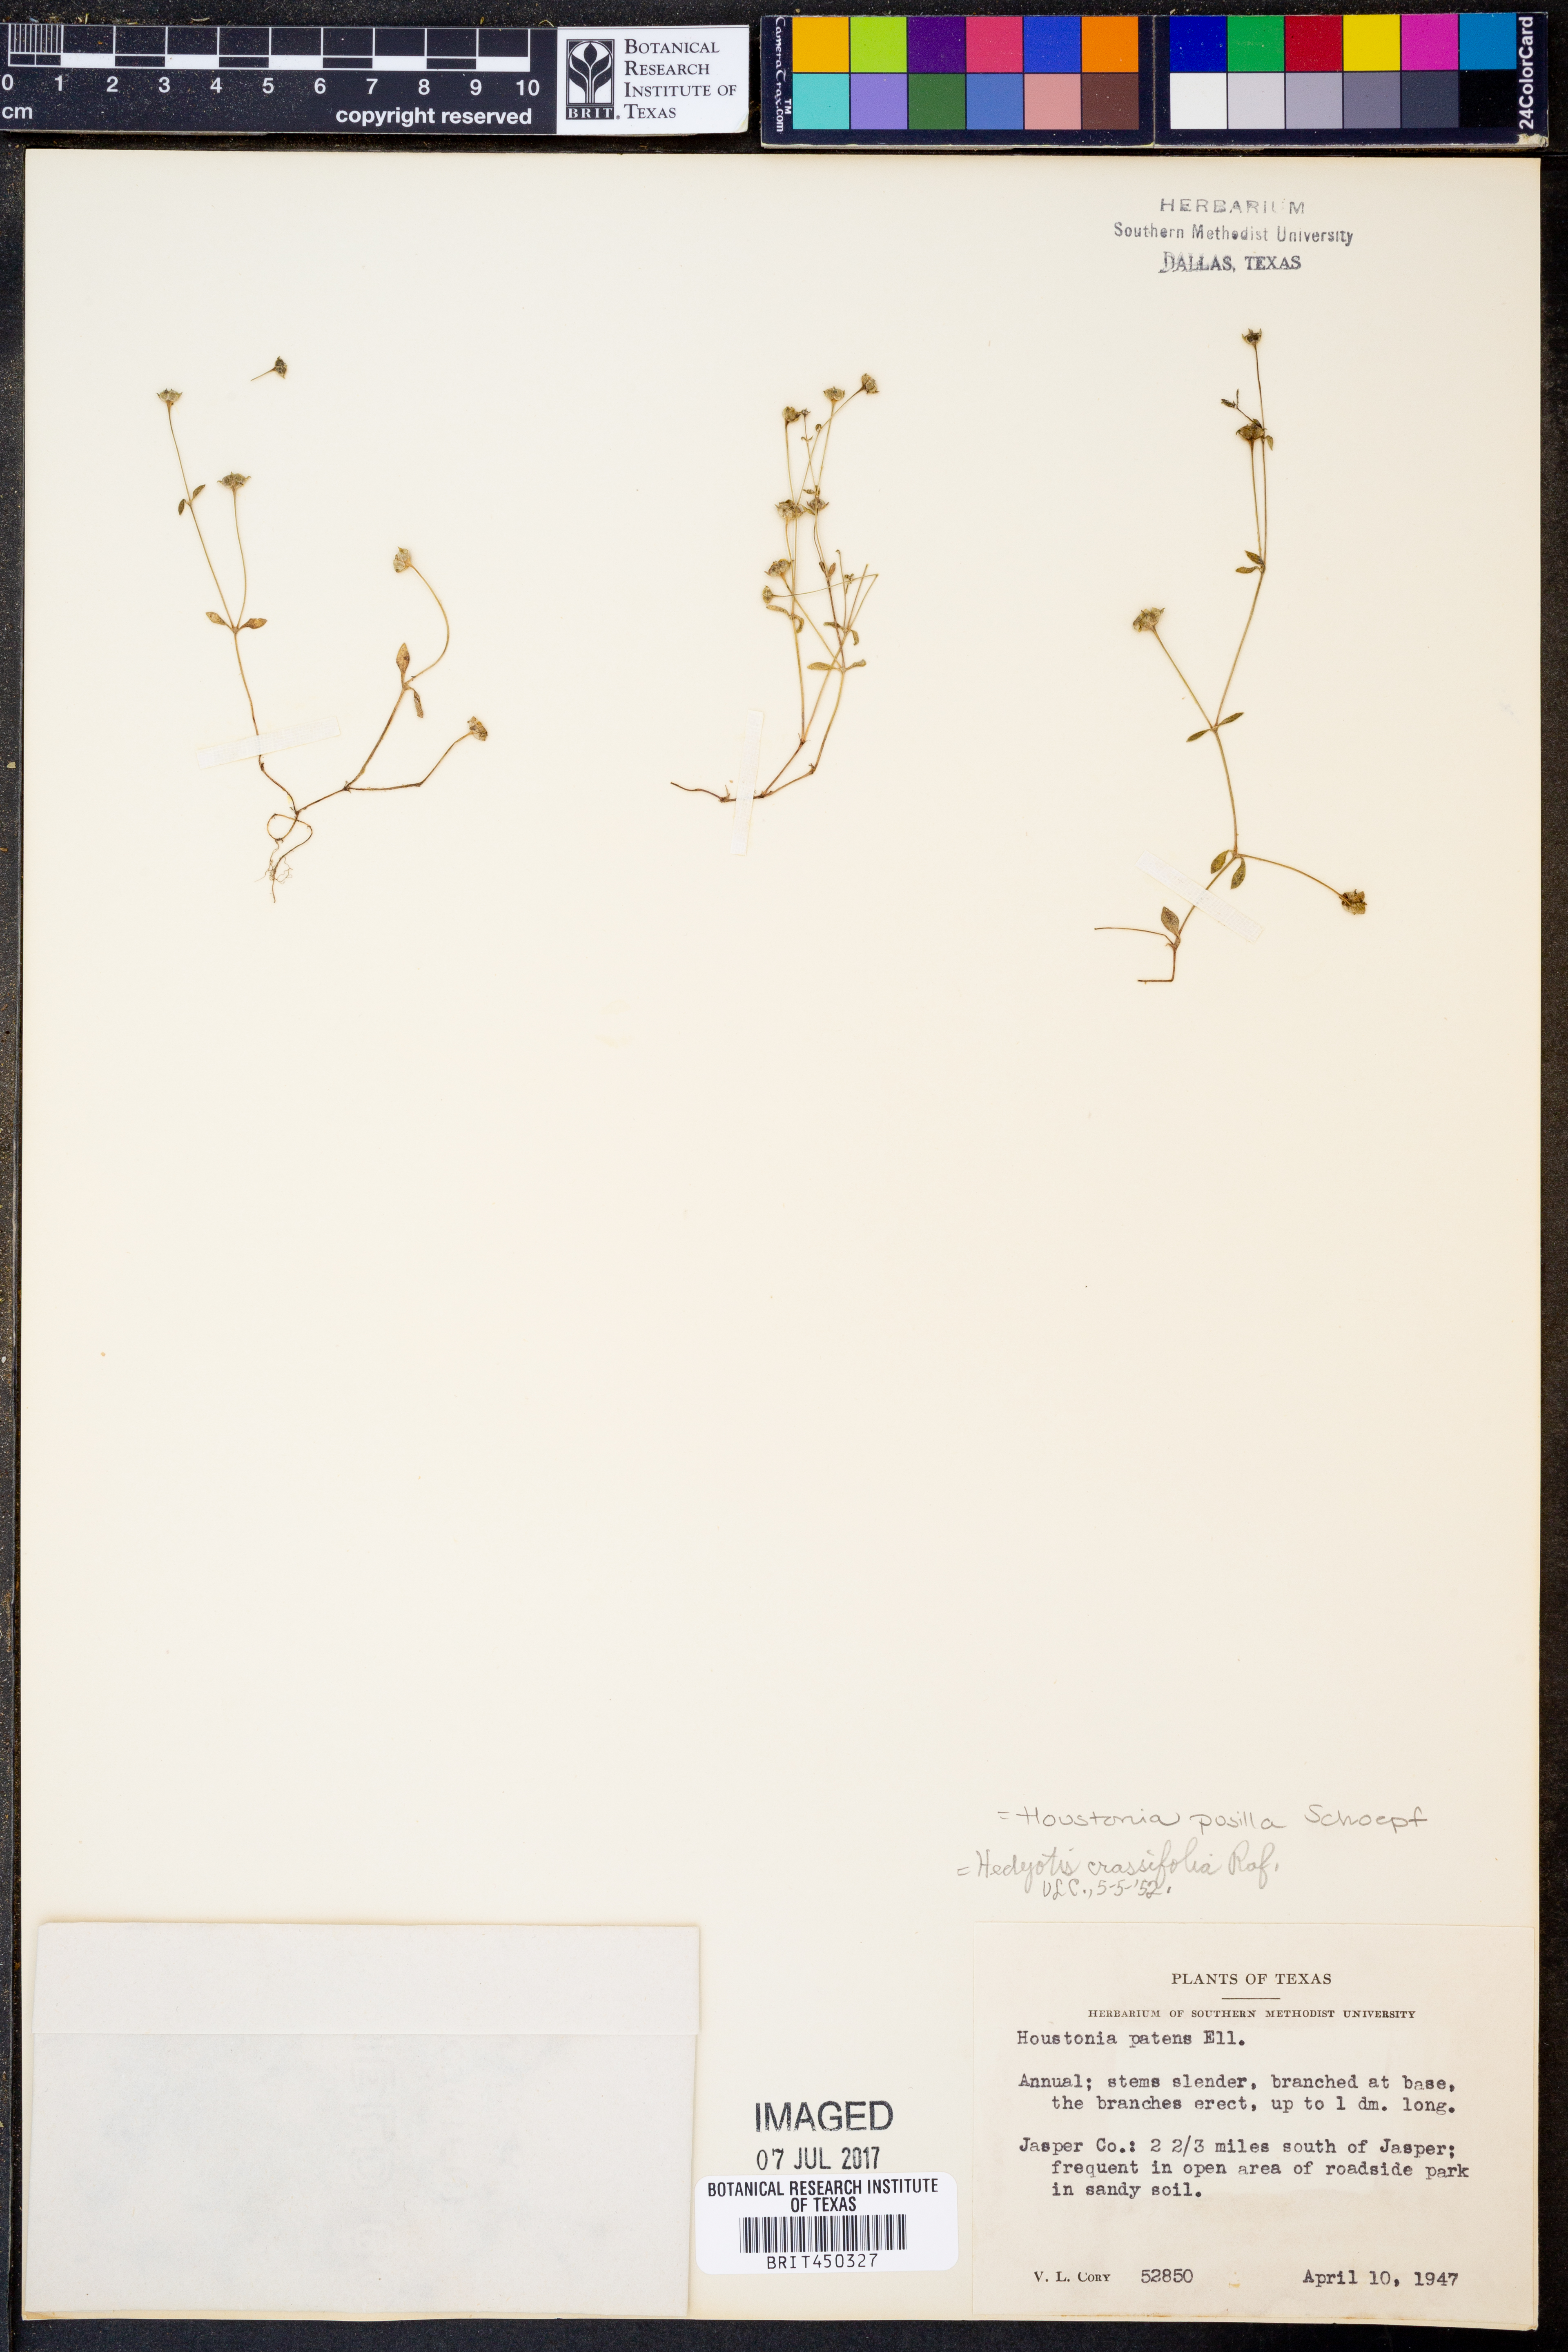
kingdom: Plantae
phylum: Tracheophyta
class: Magnoliopsida
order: Gentianales
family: Rubiaceae
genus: Houstonia
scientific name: Houstonia pusilla
